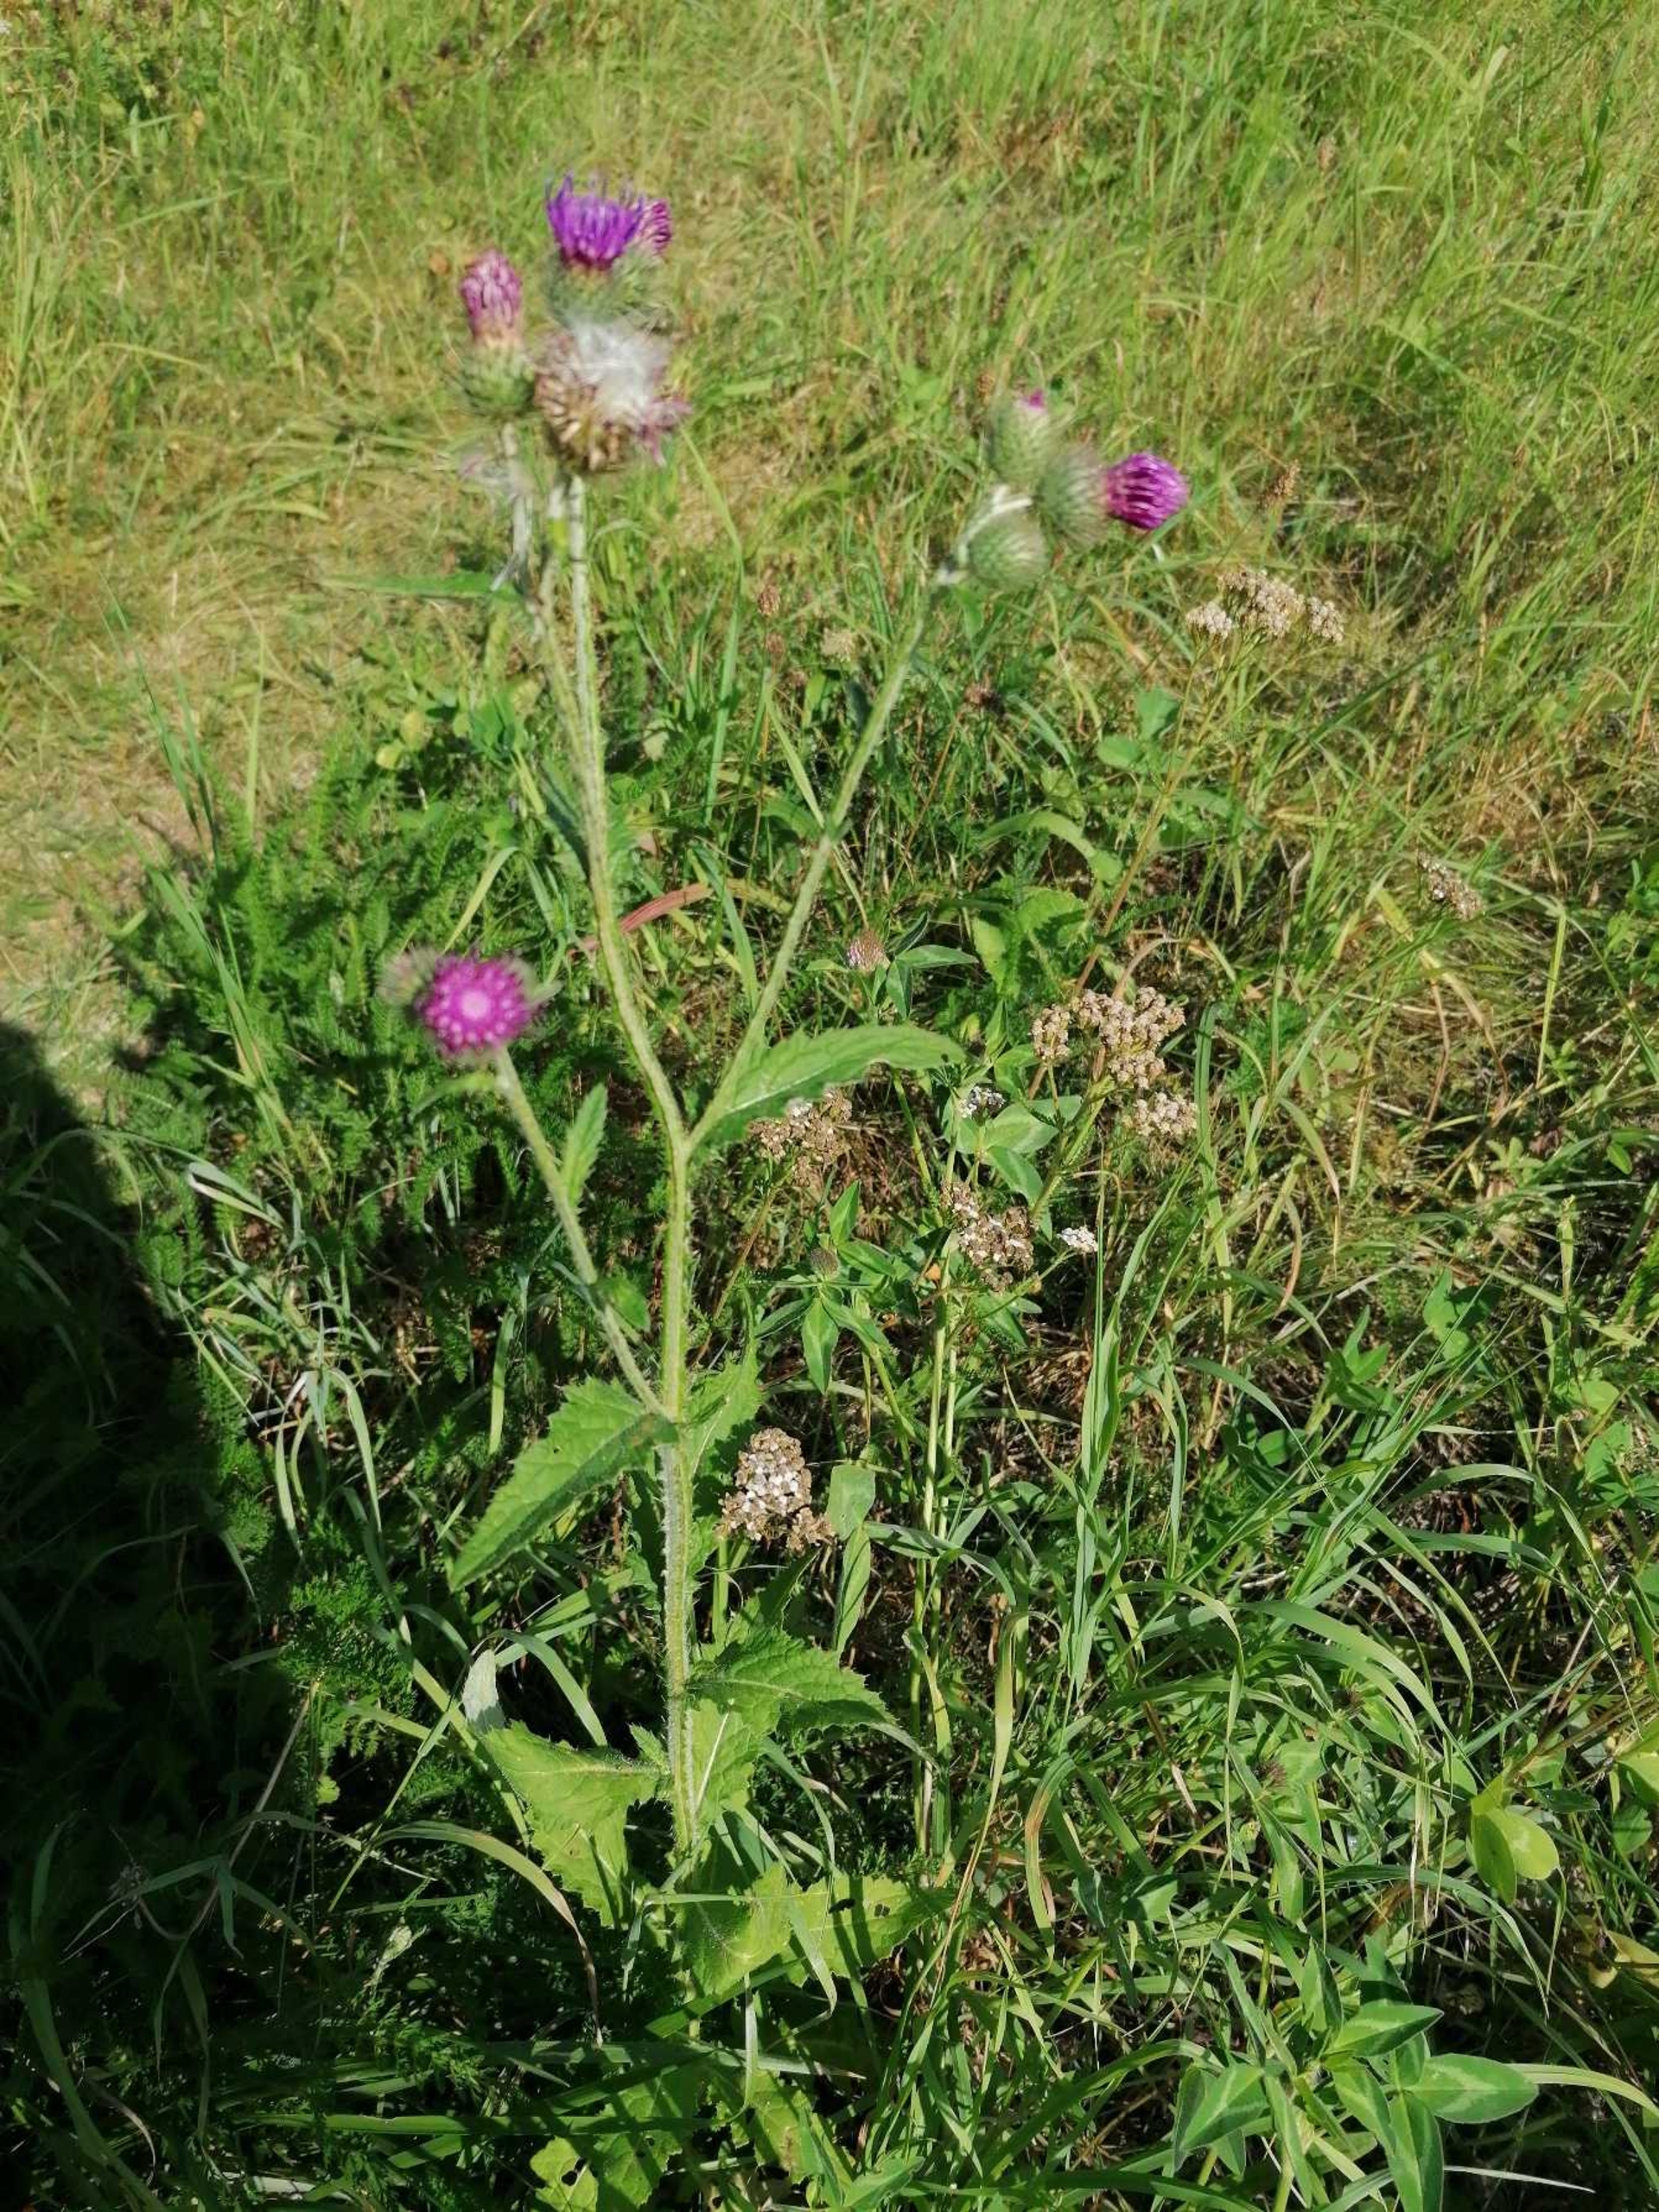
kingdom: Plantae
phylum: Tracheophyta
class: Magnoliopsida
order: Asterales
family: Asteraceae
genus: Carduus
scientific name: Carduus crispus
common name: Kruset tidsel
